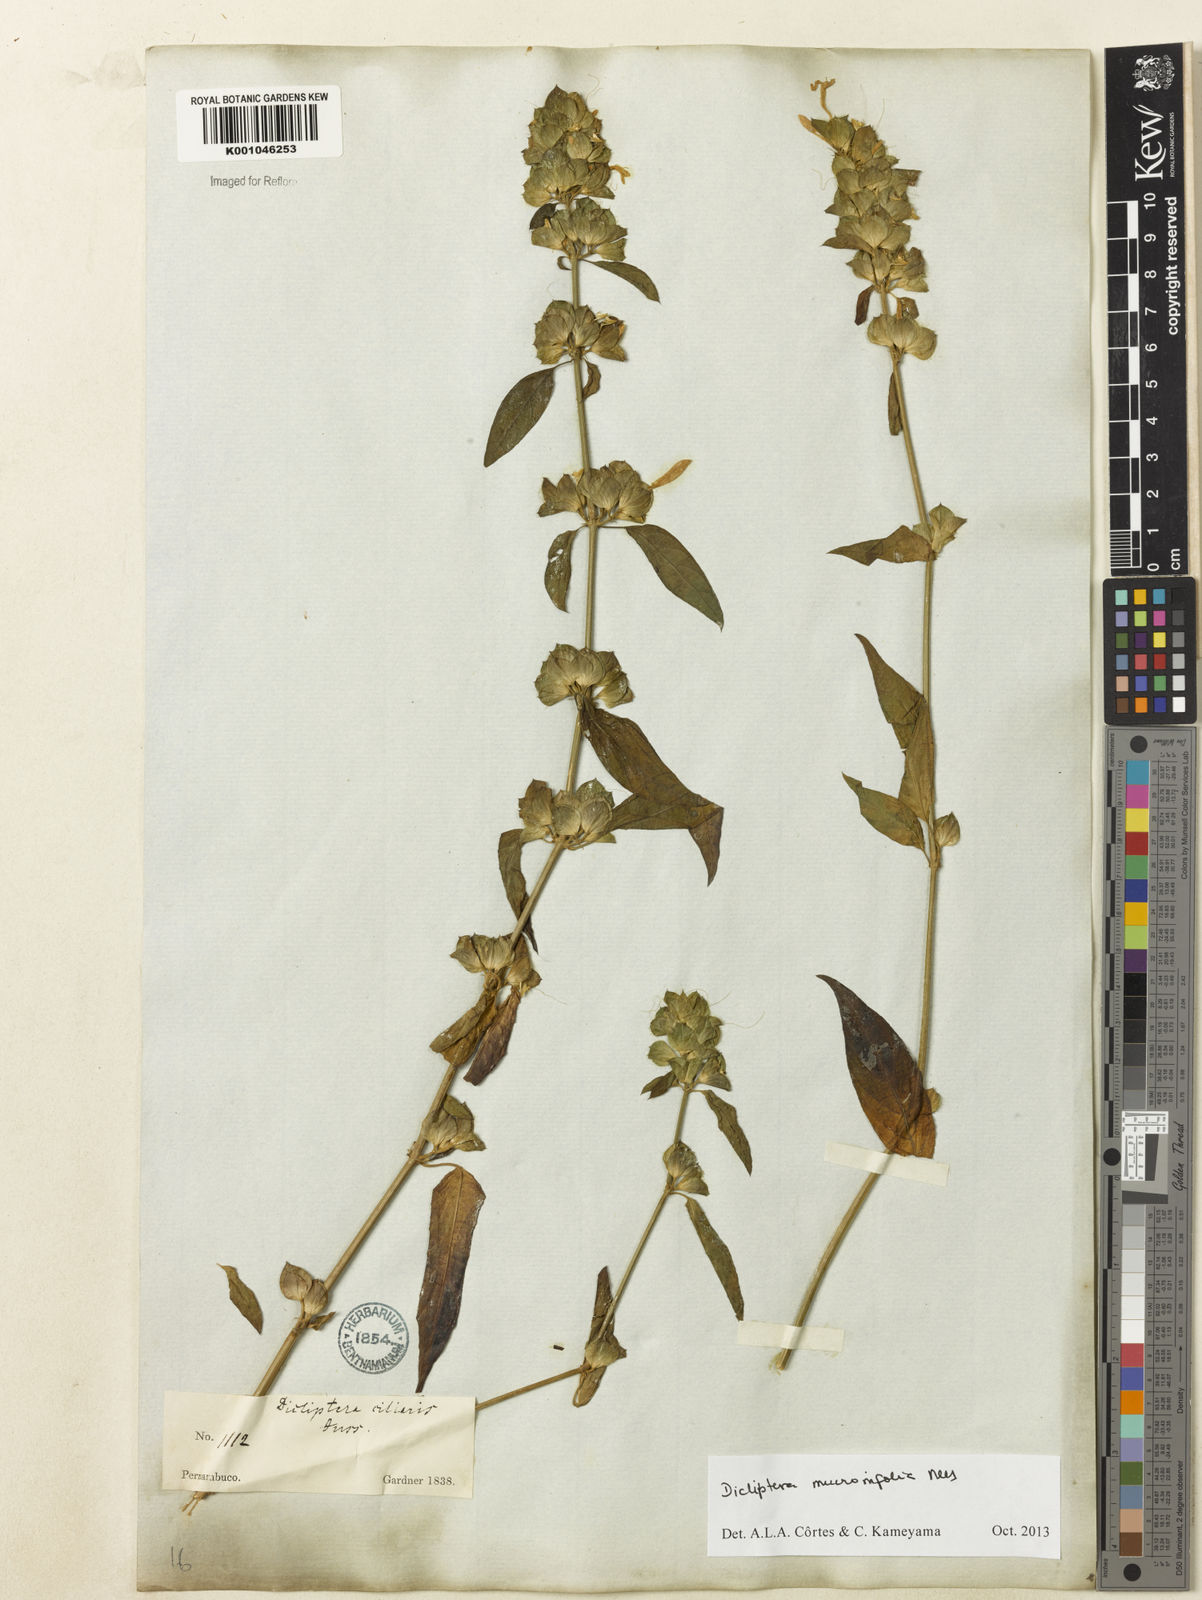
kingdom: Plantae
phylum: Tracheophyta
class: Magnoliopsida
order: Lamiales
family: Acanthaceae
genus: Dicliptera
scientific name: Dicliptera mucronifolia
